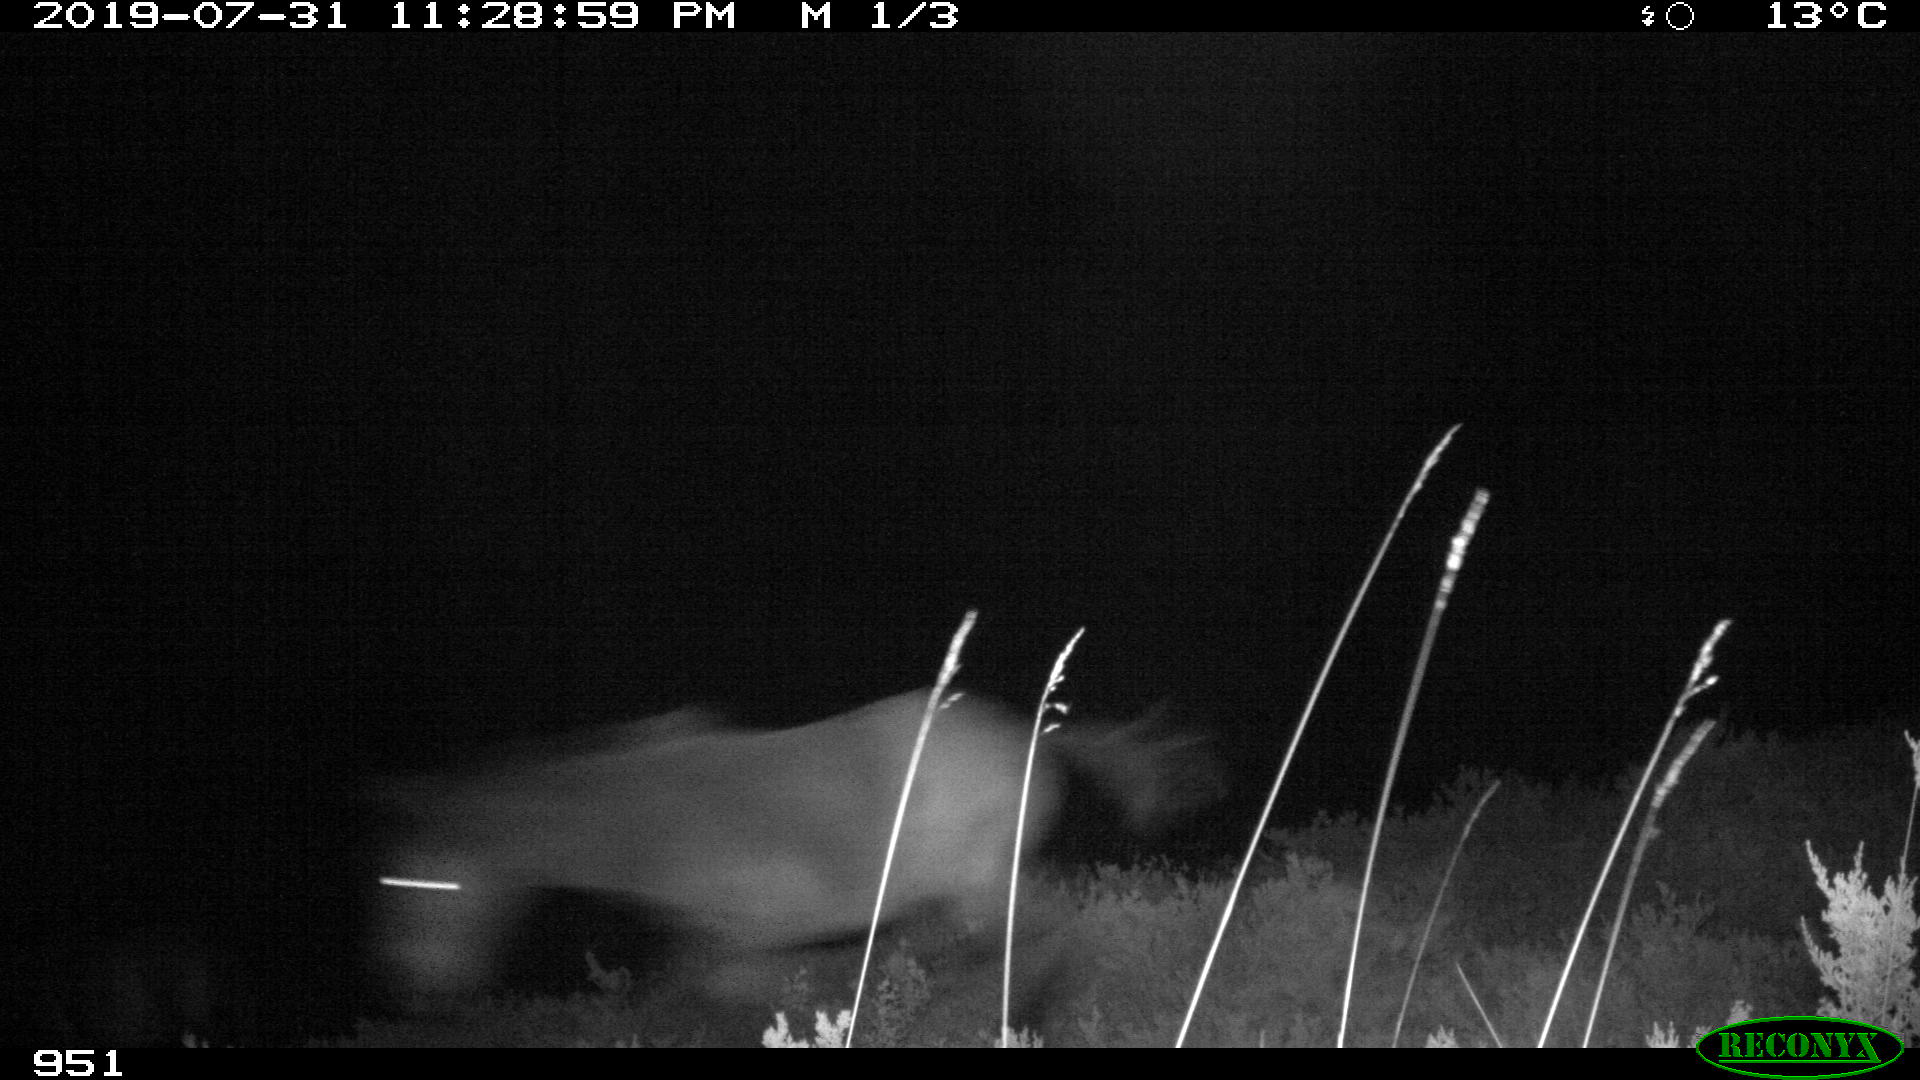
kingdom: Animalia
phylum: Chordata
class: Mammalia
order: Perissodactyla
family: Equidae
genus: Equus
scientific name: Equus caballus
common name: Horse
